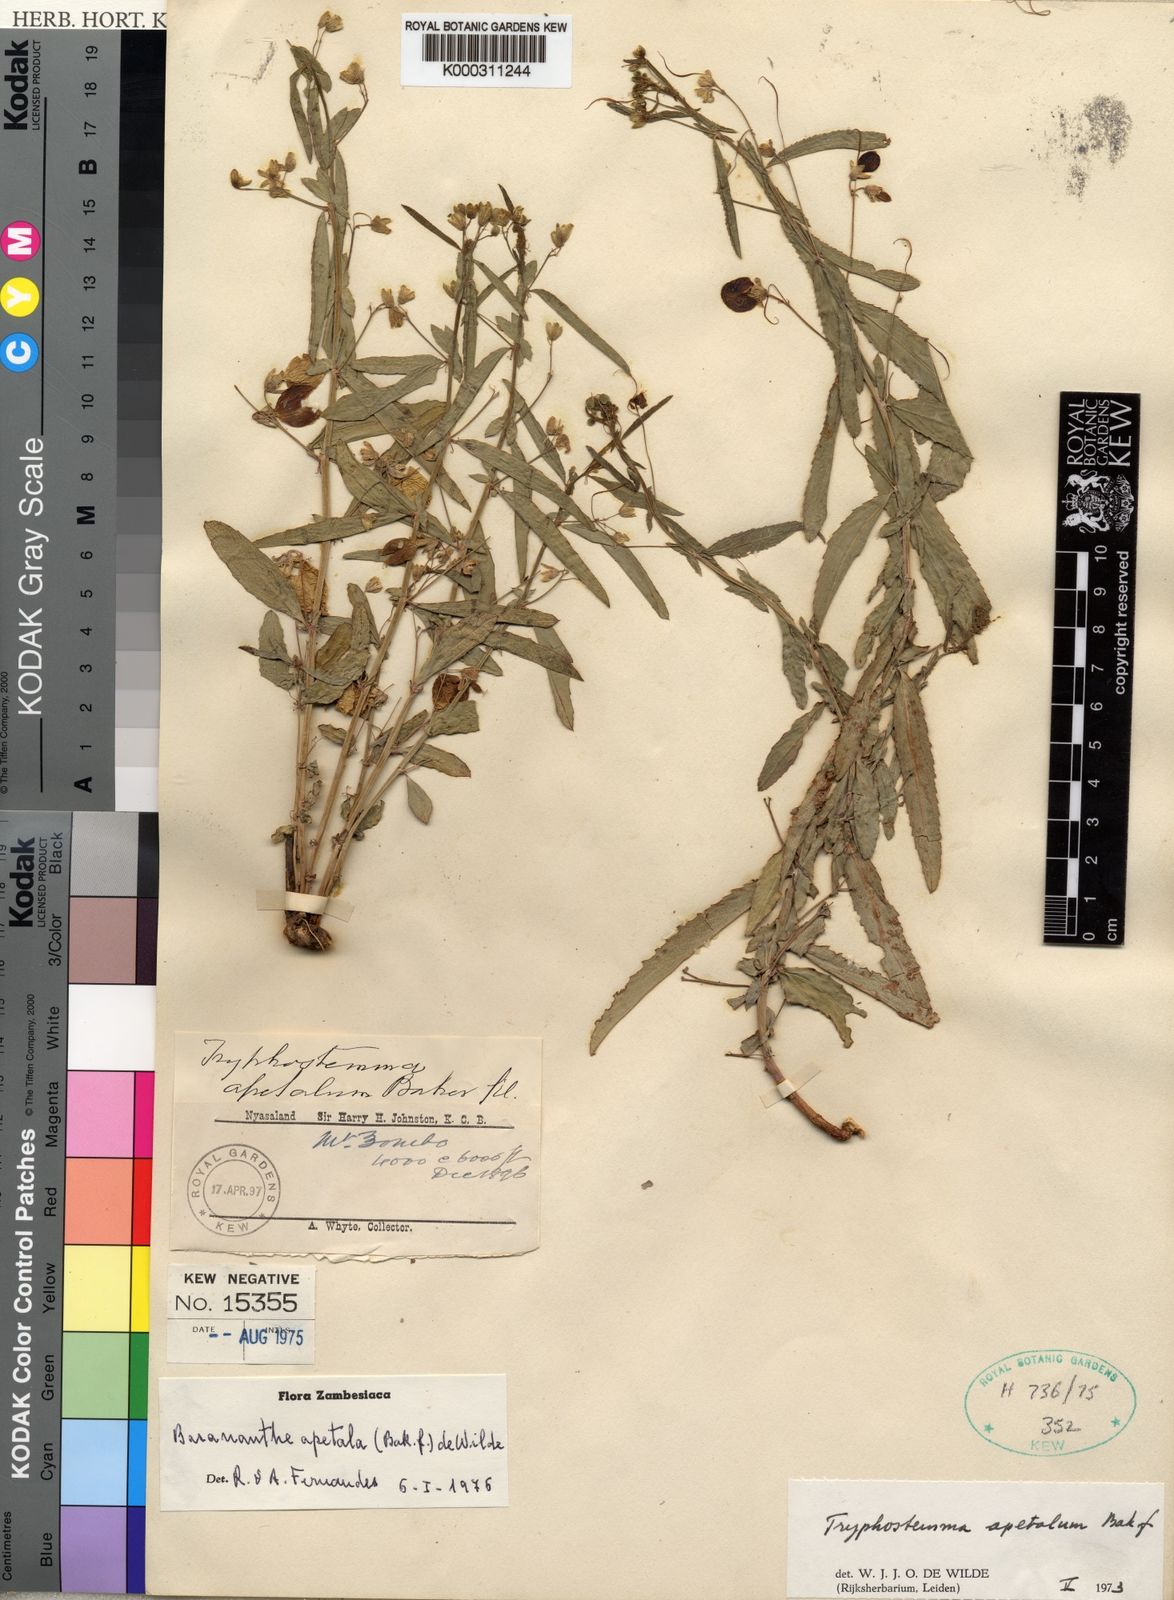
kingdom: Plantae
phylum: Tracheophyta
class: Magnoliopsida
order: Malpighiales
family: Passifloraceae
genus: Basananthe
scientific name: Basananthe apetala
